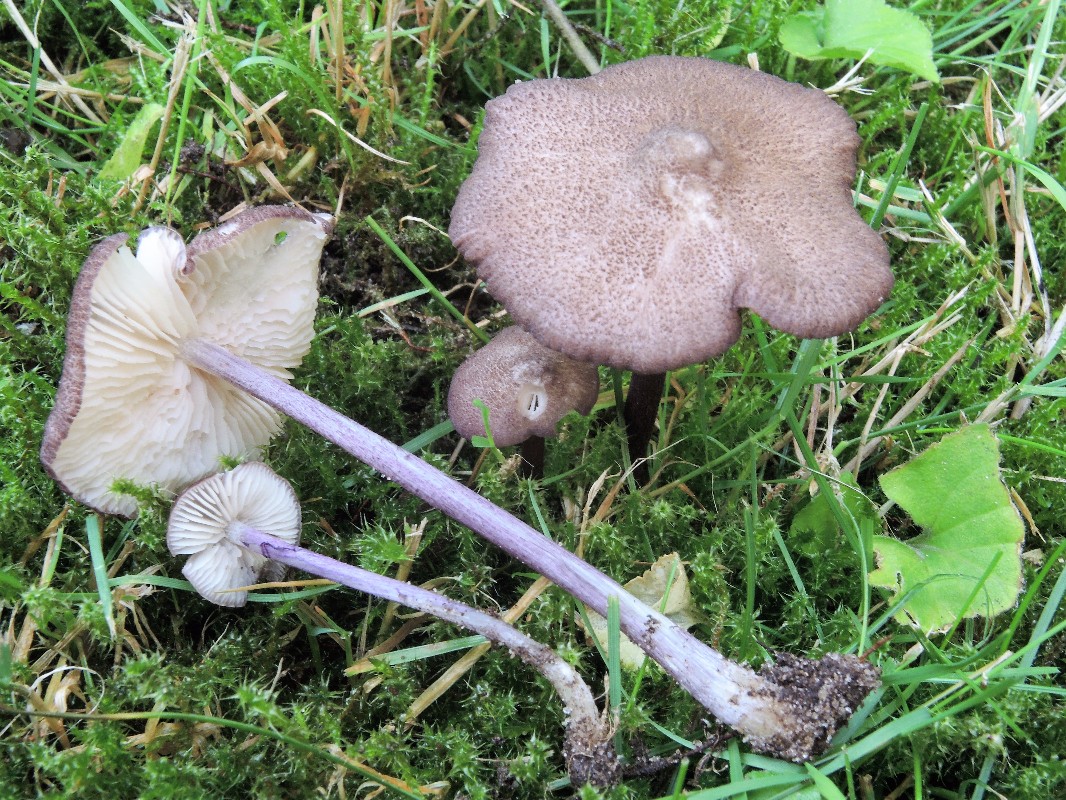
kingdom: Fungi
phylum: Basidiomycota
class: Agaricomycetes
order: Agaricales
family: Entolomataceae
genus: Entoloma
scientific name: Entoloma allochroum
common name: Rødviolet rødblad
